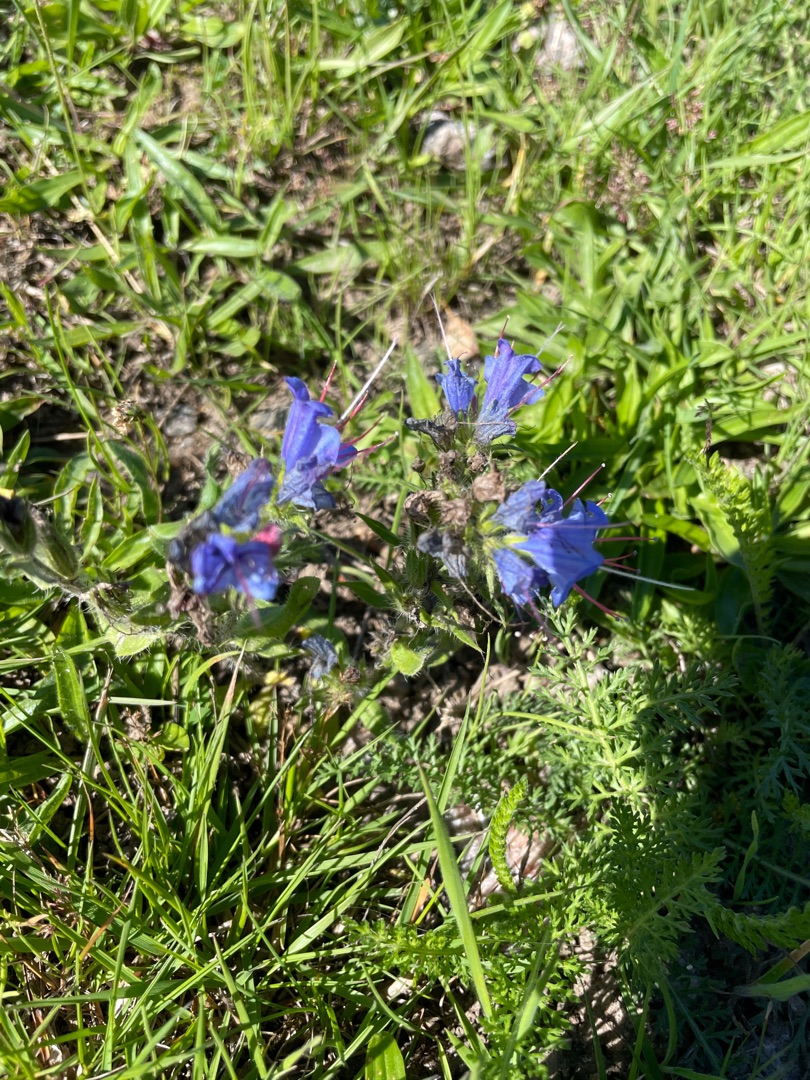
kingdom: Plantae
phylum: Tracheophyta
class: Magnoliopsida
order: Boraginales
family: Boraginaceae
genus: Echium
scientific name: Echium vulgare
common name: Slangehoved
